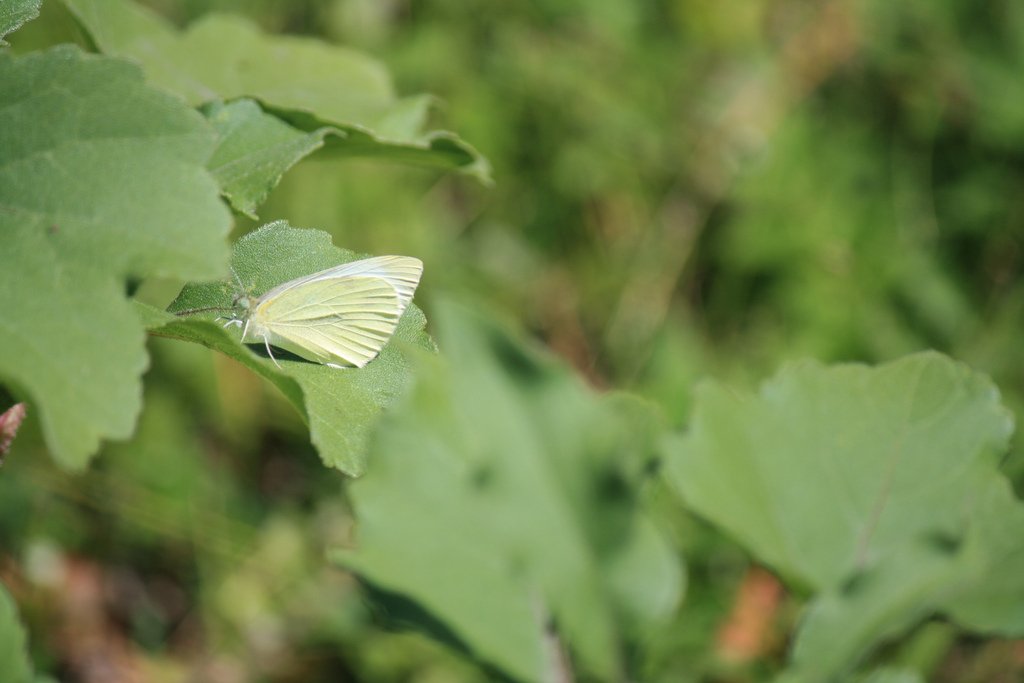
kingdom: Animalia
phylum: Arthropoda
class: Insecta
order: Lepidoptera
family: Pieridae
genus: Pieris
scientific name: Pieris oleracea
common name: Mustard White
